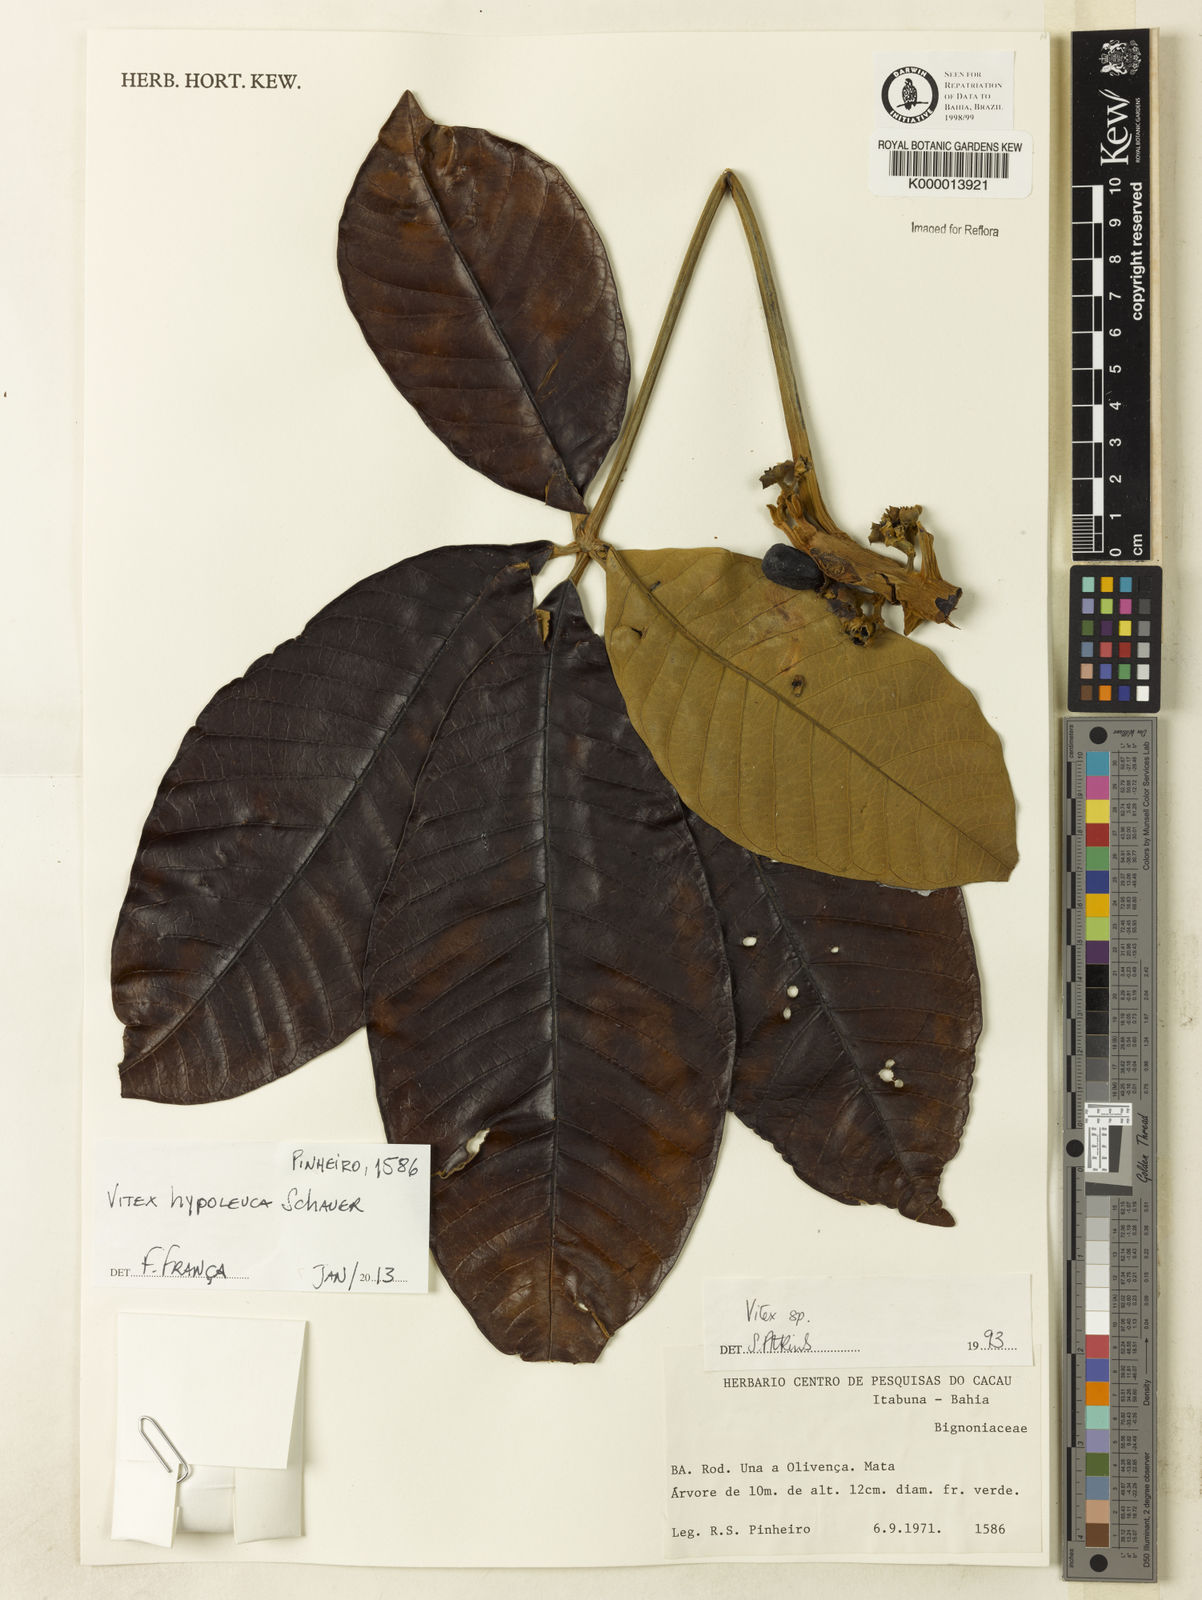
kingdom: Plantae
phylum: Tracheophyta
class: Magnoliopsida
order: Lamiales
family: Lamiaceae
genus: Vitex
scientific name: Vitex hypoleuca
